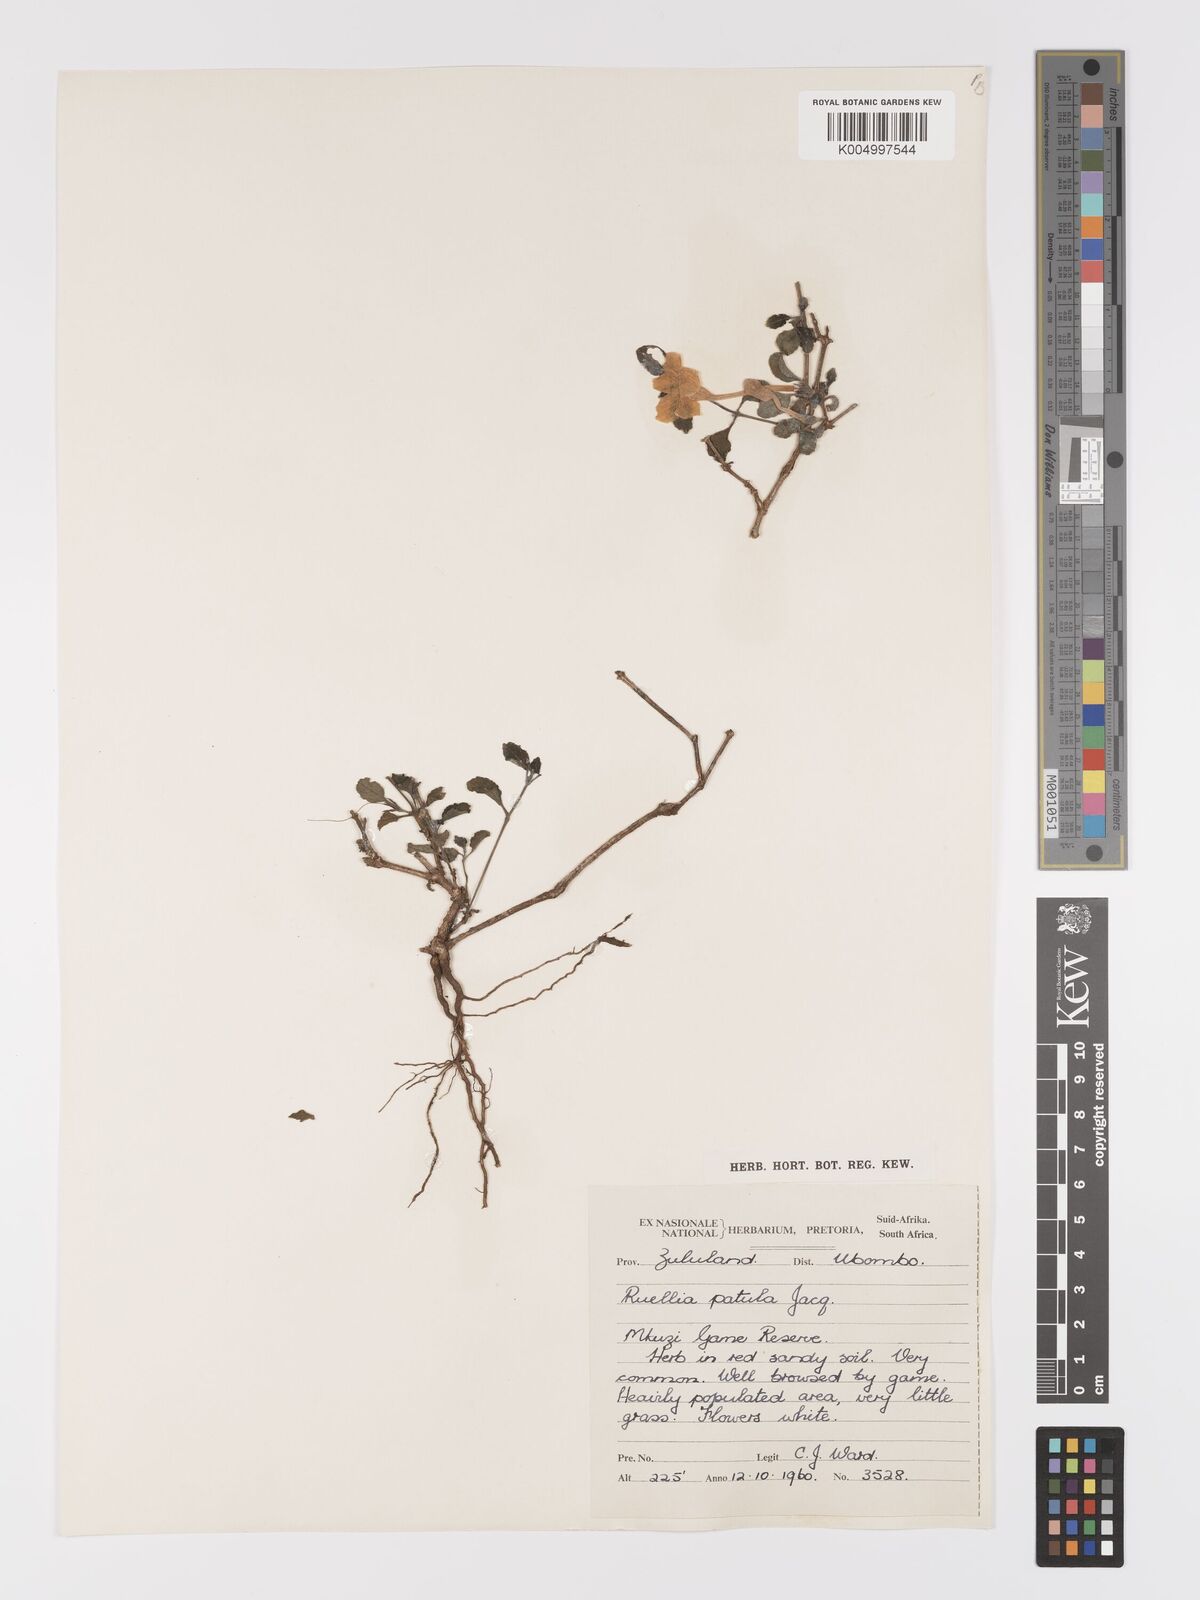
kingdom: Plantae
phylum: Tracheophyta
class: Magnoliopsida
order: Lamiales
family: Acanthaceae
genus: Ruellia
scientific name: Ruellia patula
